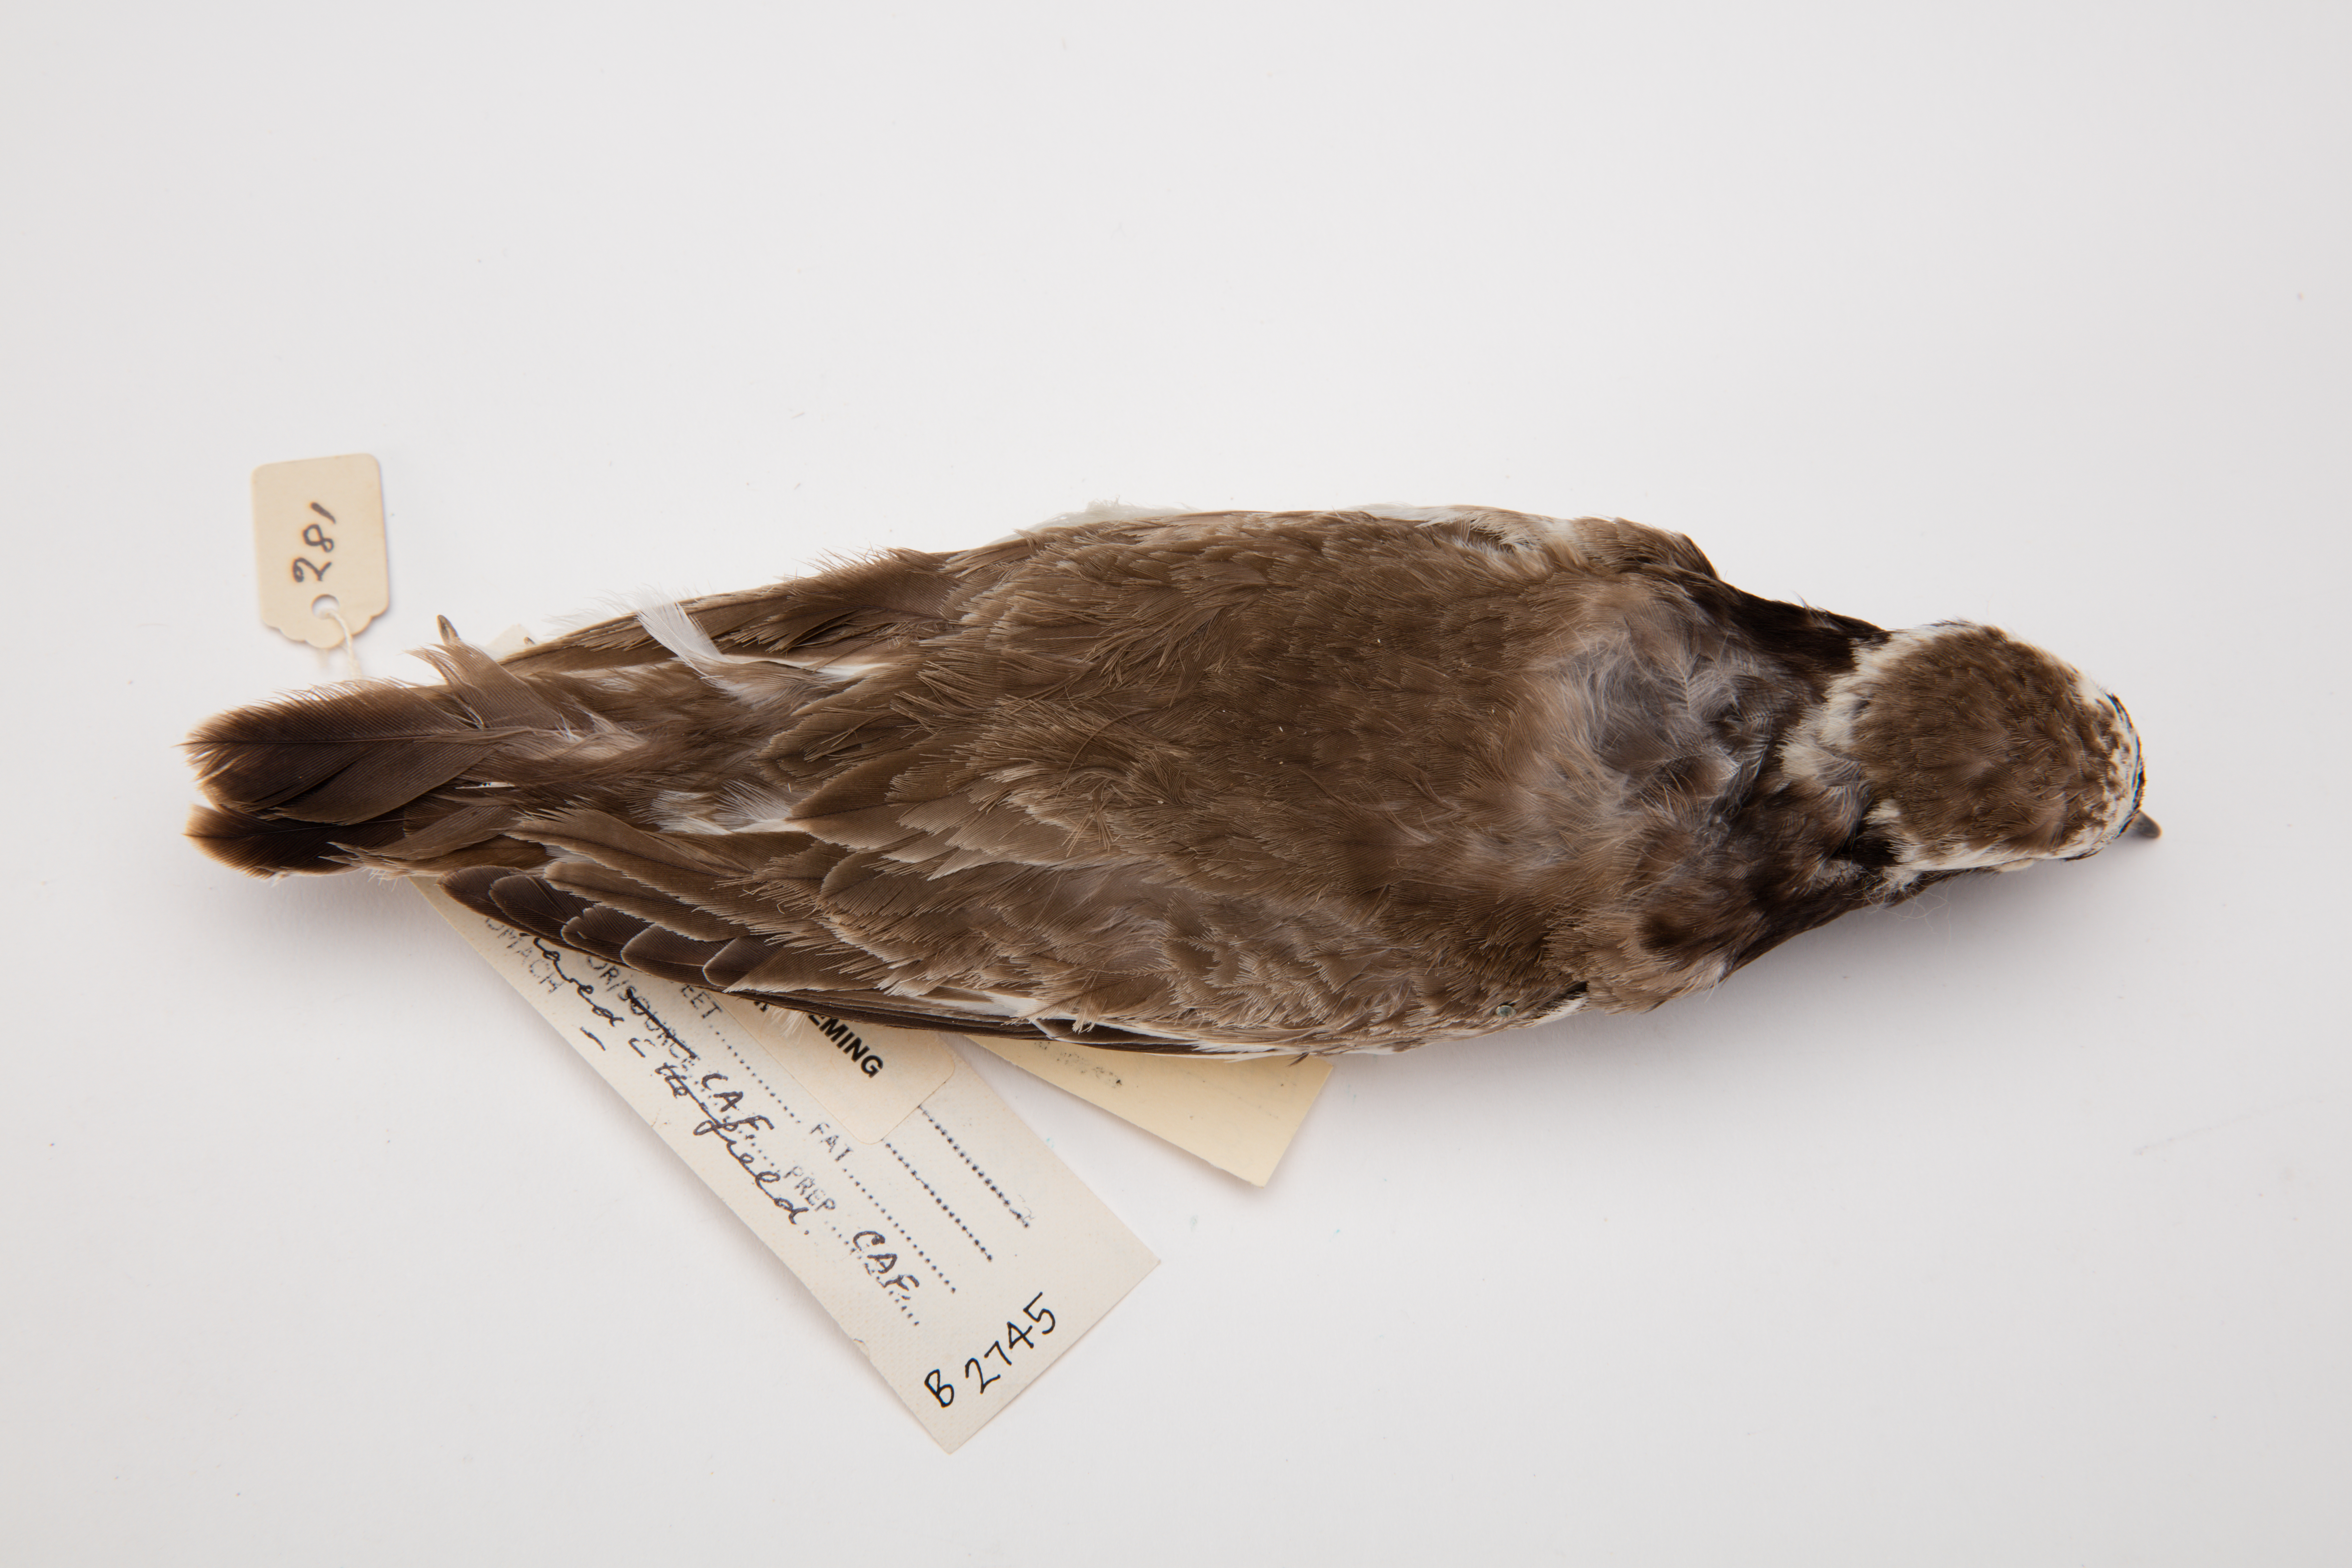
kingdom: Animalia
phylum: Chordata
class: Aves
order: Charadriiformes
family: Charadriidae
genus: Thinornis
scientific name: Thinornis novaeseelandiae
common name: Shore dotterel
